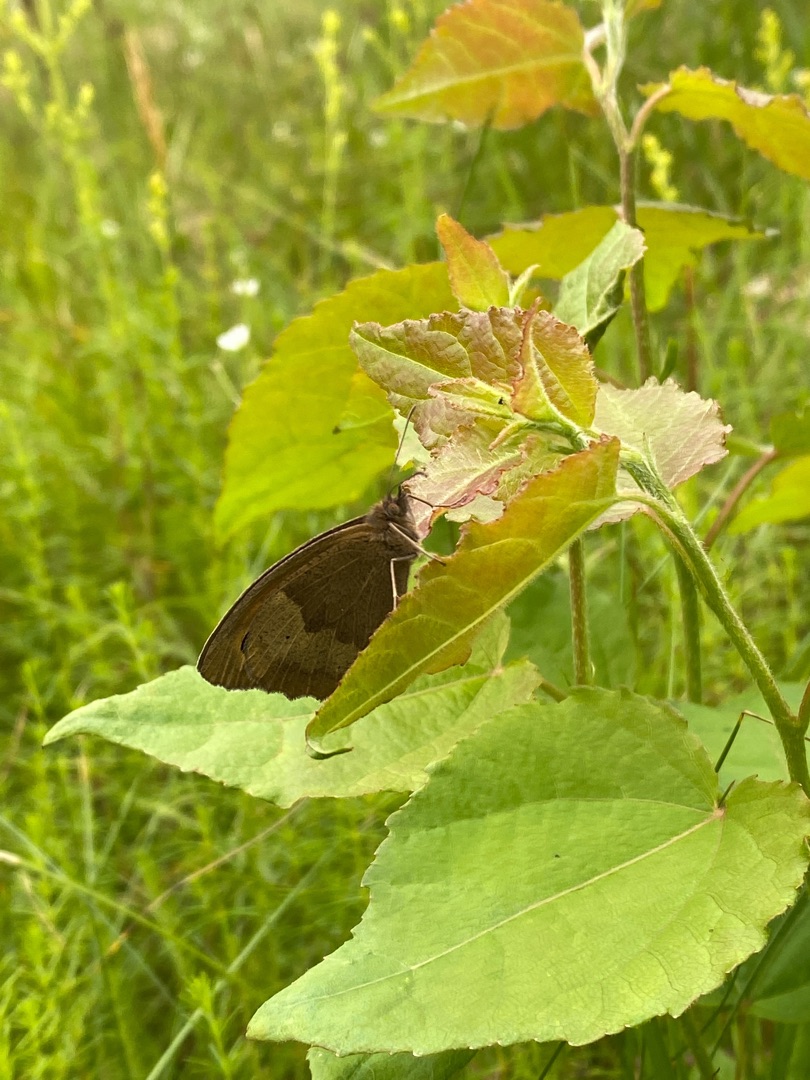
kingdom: Animalia
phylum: Arthropoda
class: Insecta
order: Lepidoptera
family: Nymphalidae
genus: Maniola
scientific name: Maniola jurtina
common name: Græsrandøje
